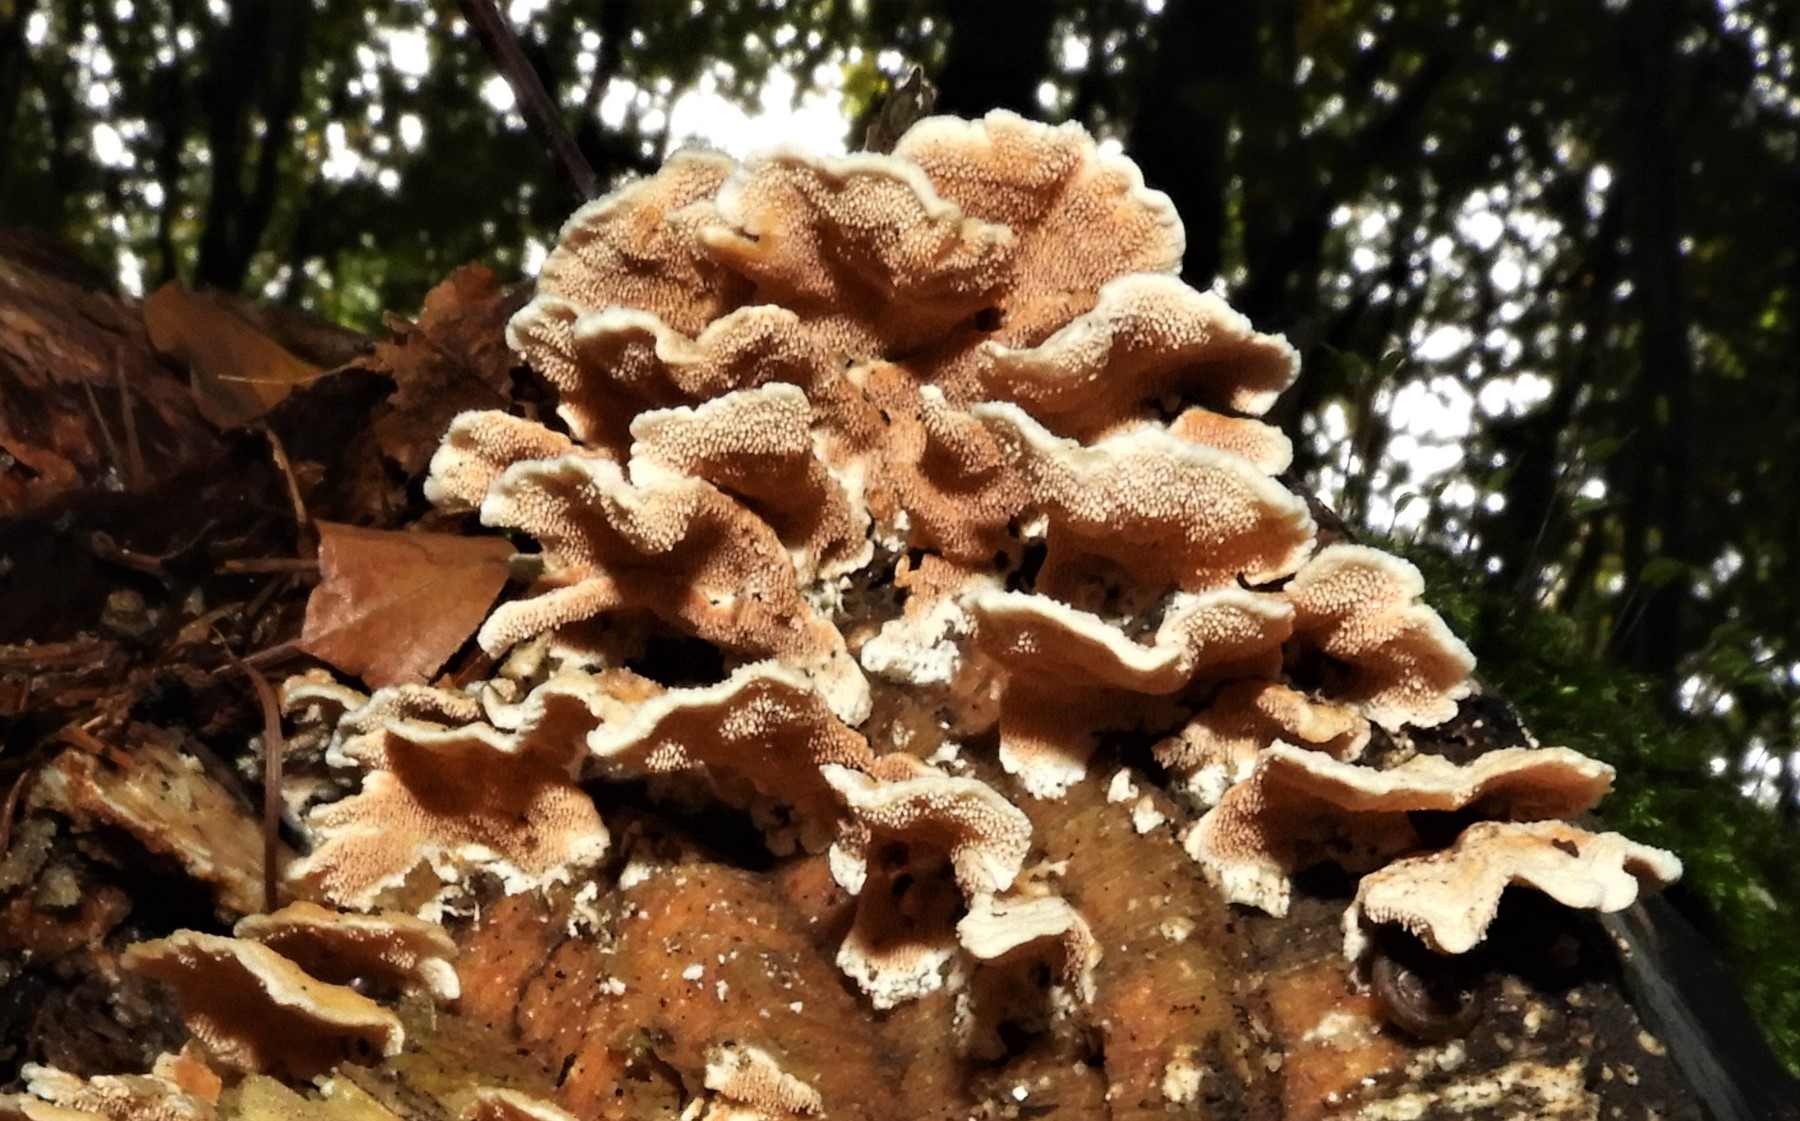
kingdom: Fungi
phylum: Basidiomycota
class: Agaricomycetes
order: Polyporales
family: Steccherinaceae
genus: Steccherinum
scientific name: Steccherinum
